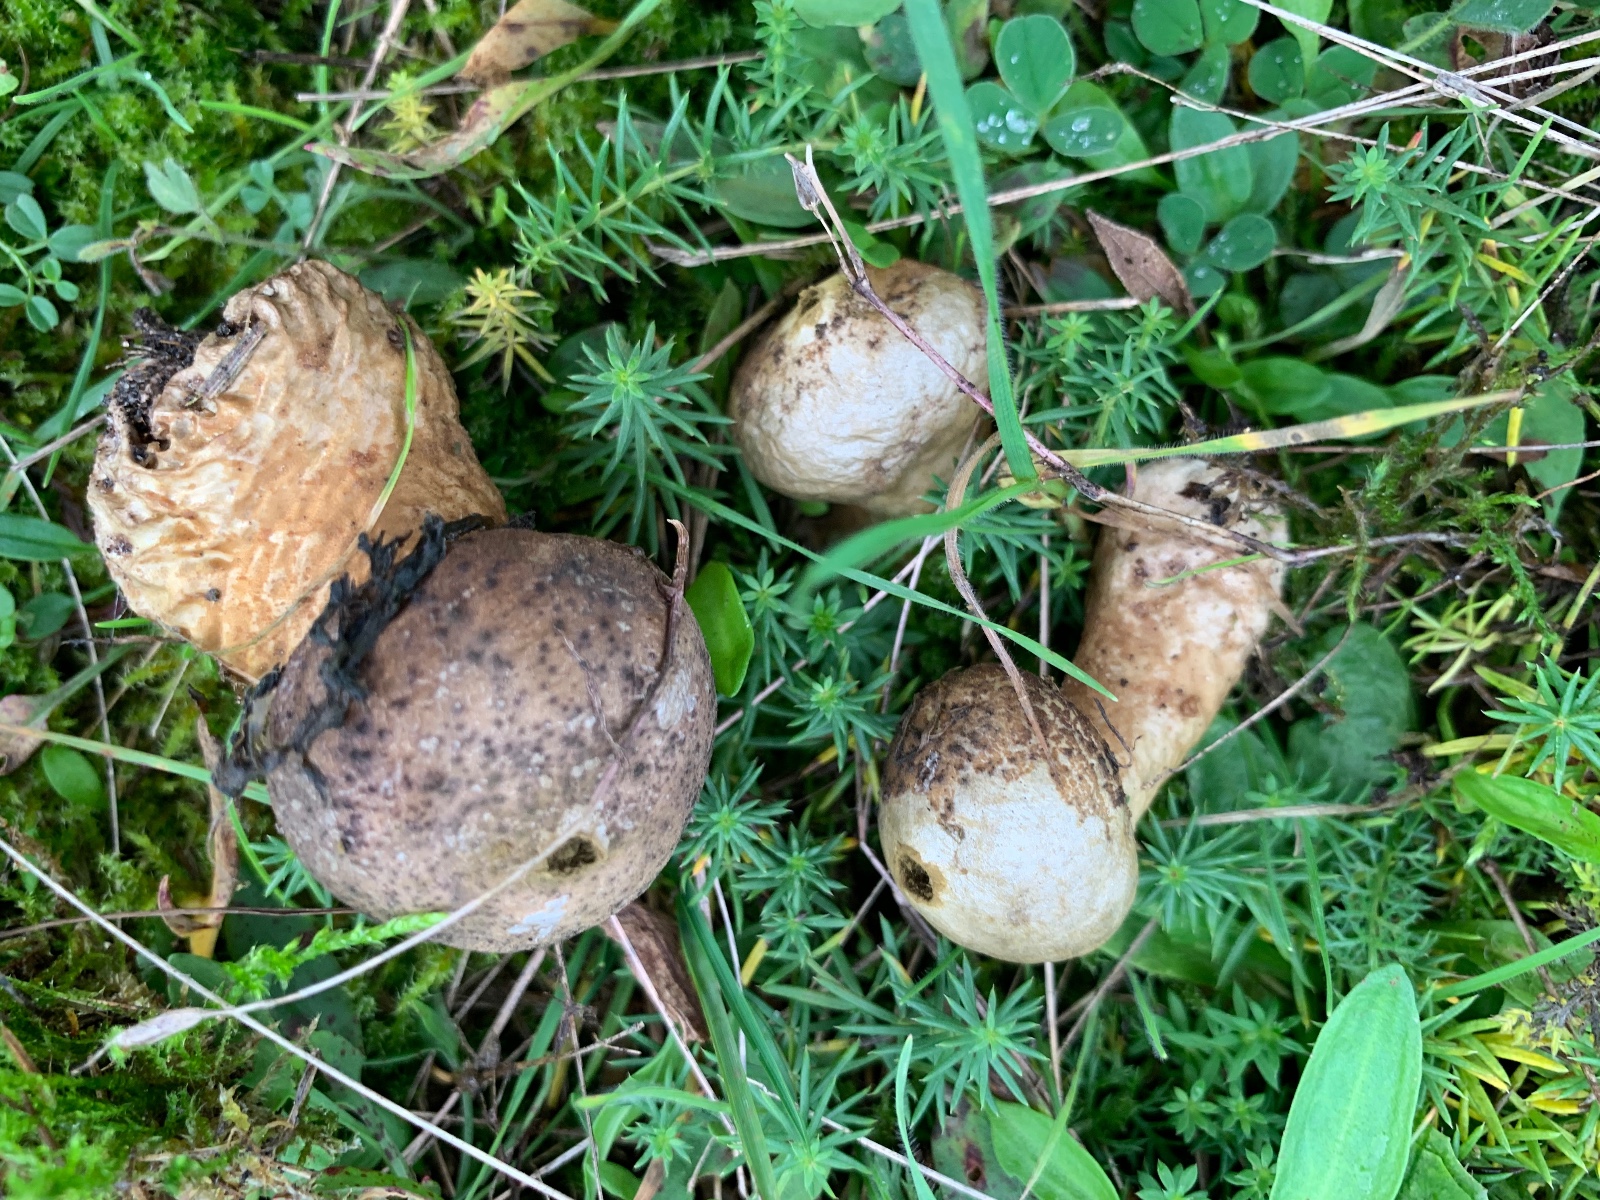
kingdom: Fungi
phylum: Basidiomycota
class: Agaricomycetes
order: Agaricales
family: Lycoperdaceae
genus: Lycoperdon
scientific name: Lycoperdon lividum
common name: mark-støvbold
